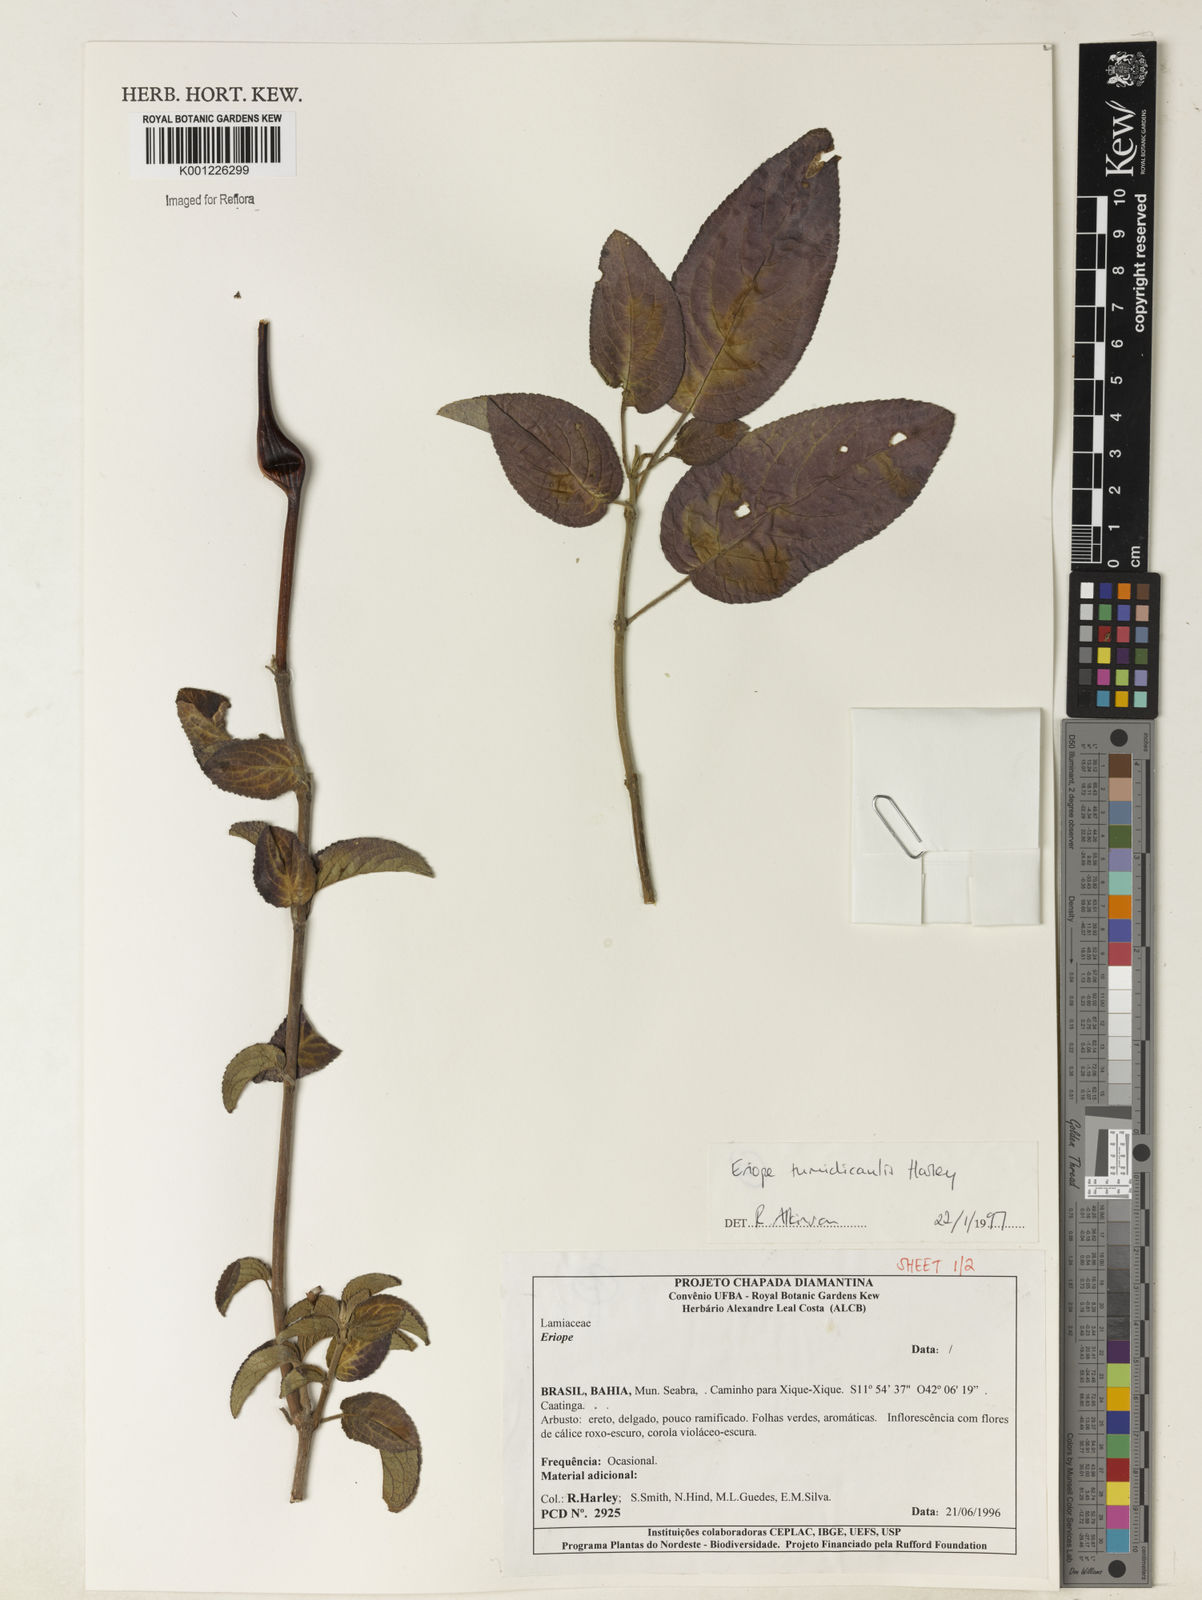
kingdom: Plantae
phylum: Tracheophyta
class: Magnoliopsida
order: Lamiales
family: Lamiaceae
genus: Eriope
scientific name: Eriope tumidicaulis
